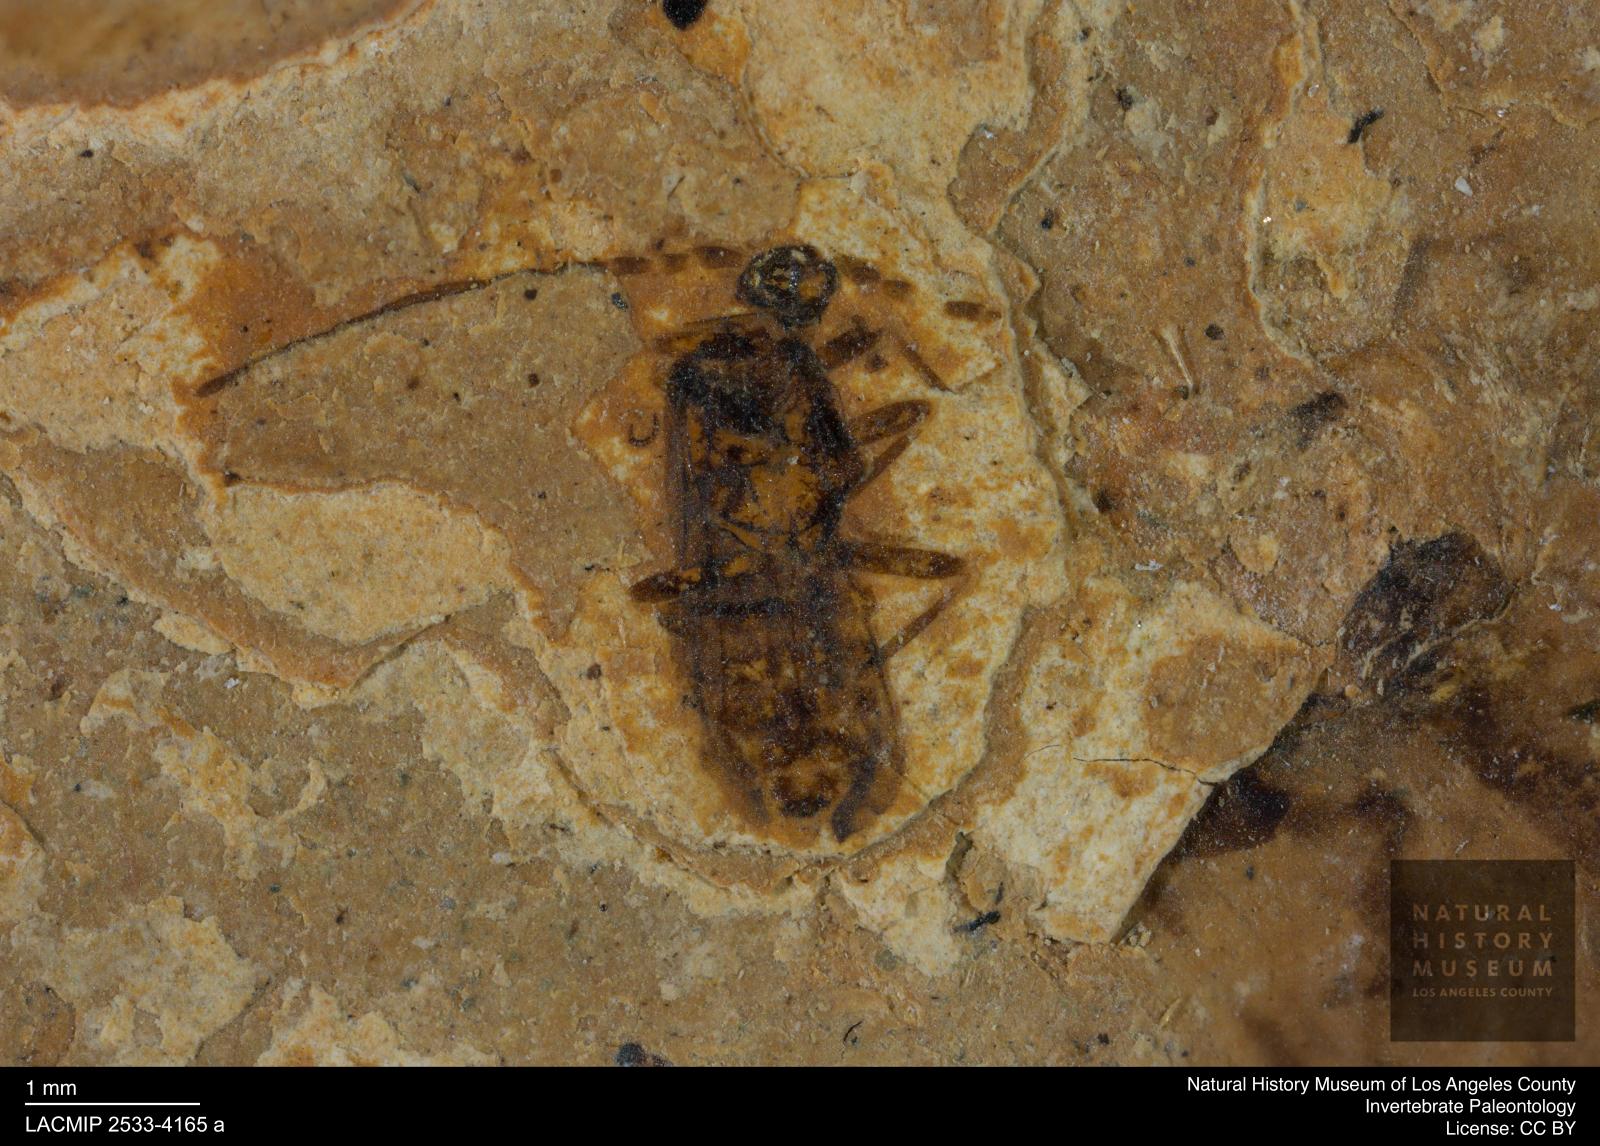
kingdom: Animalia
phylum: Arthropoda
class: Insecta
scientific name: Insecta
